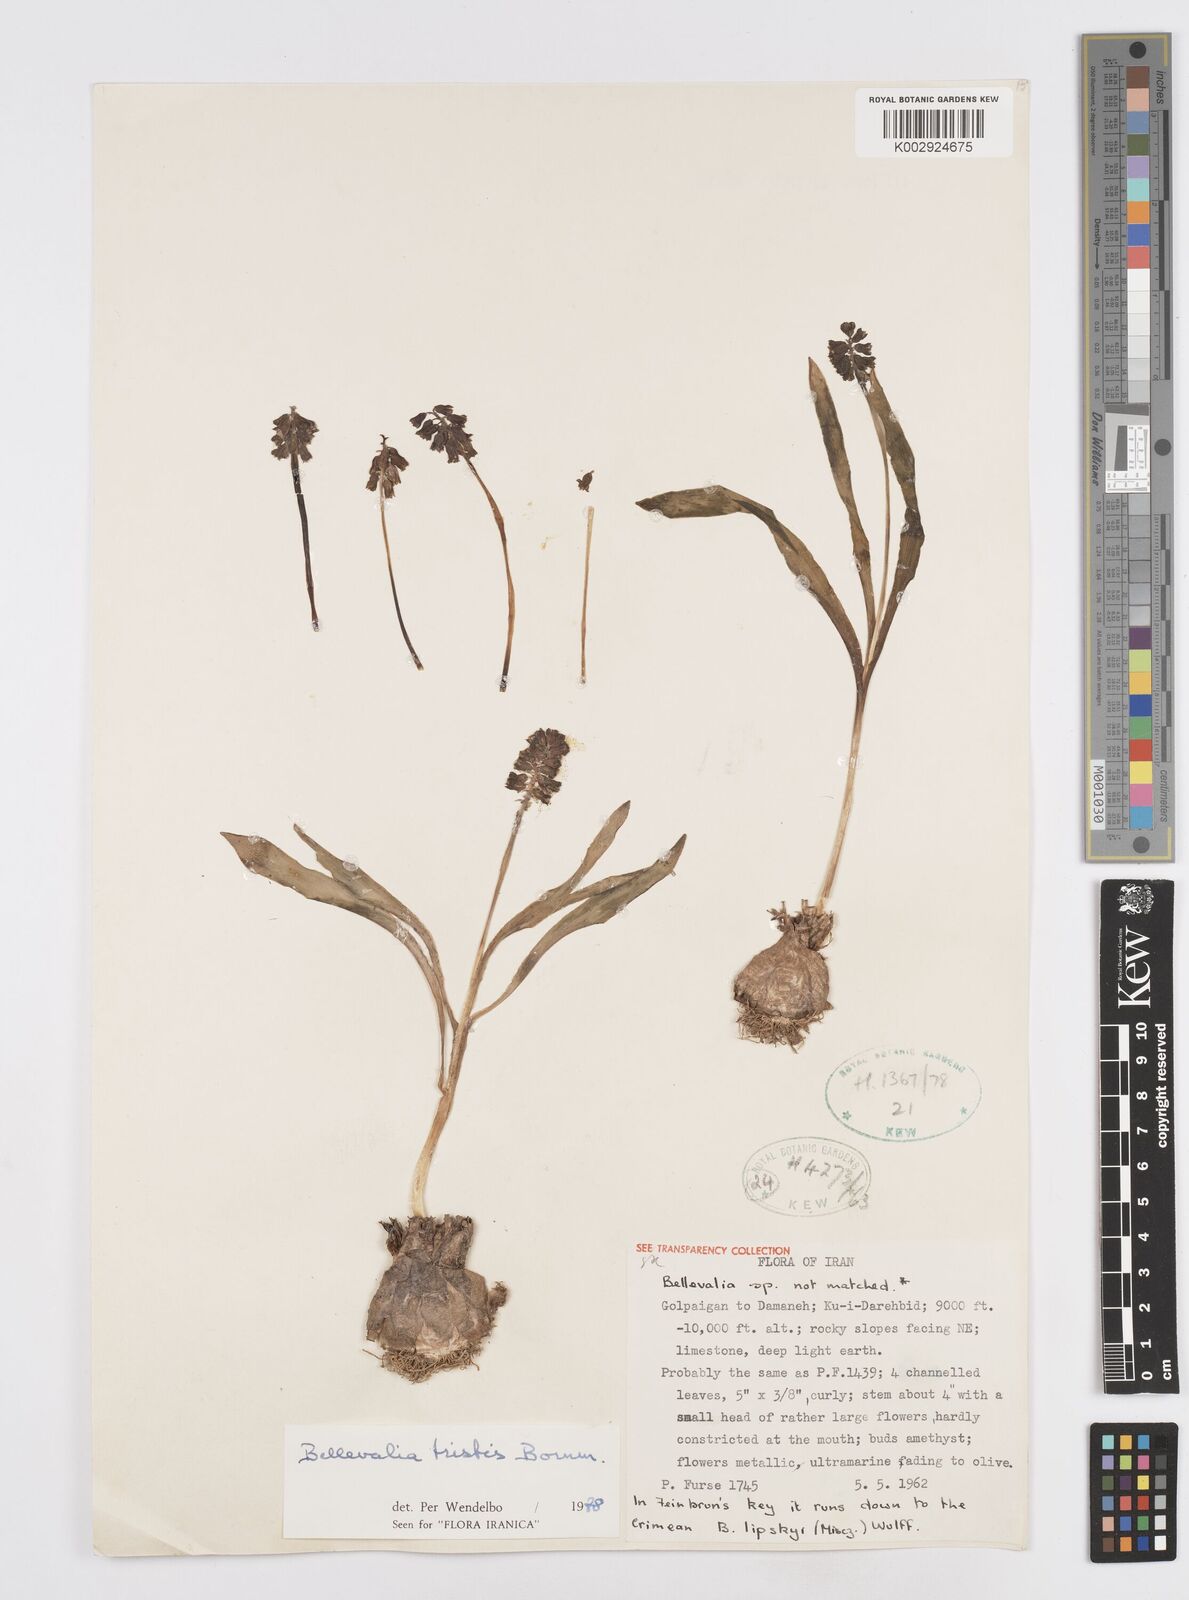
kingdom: Plantae
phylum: Tracheophyta
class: Liliopsida
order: Asparagales
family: Asparagaceae
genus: Bellevalia
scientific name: Bellevalia tristis
